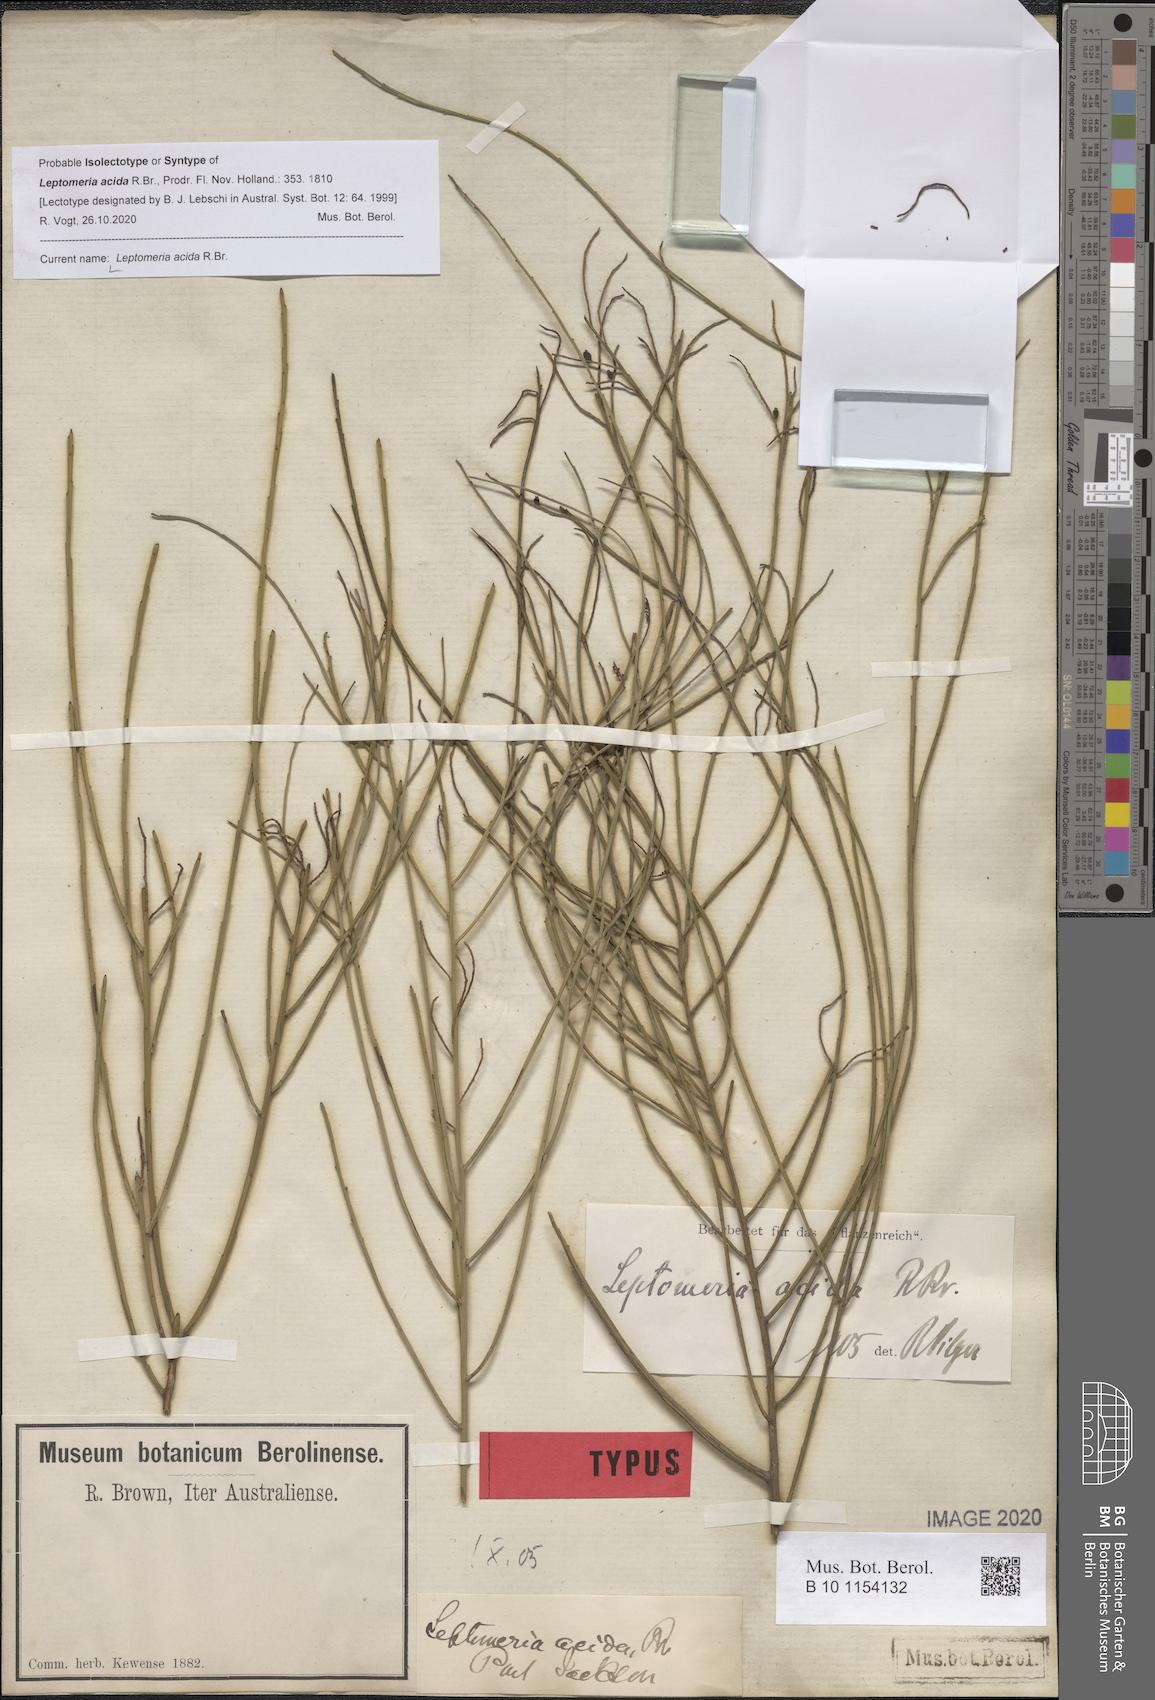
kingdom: Plantae
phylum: Tracheophyta
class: Magnoliopsida
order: Santalales
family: Amphorogynaceae
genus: Leptomeria
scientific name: Leptomeria acida
